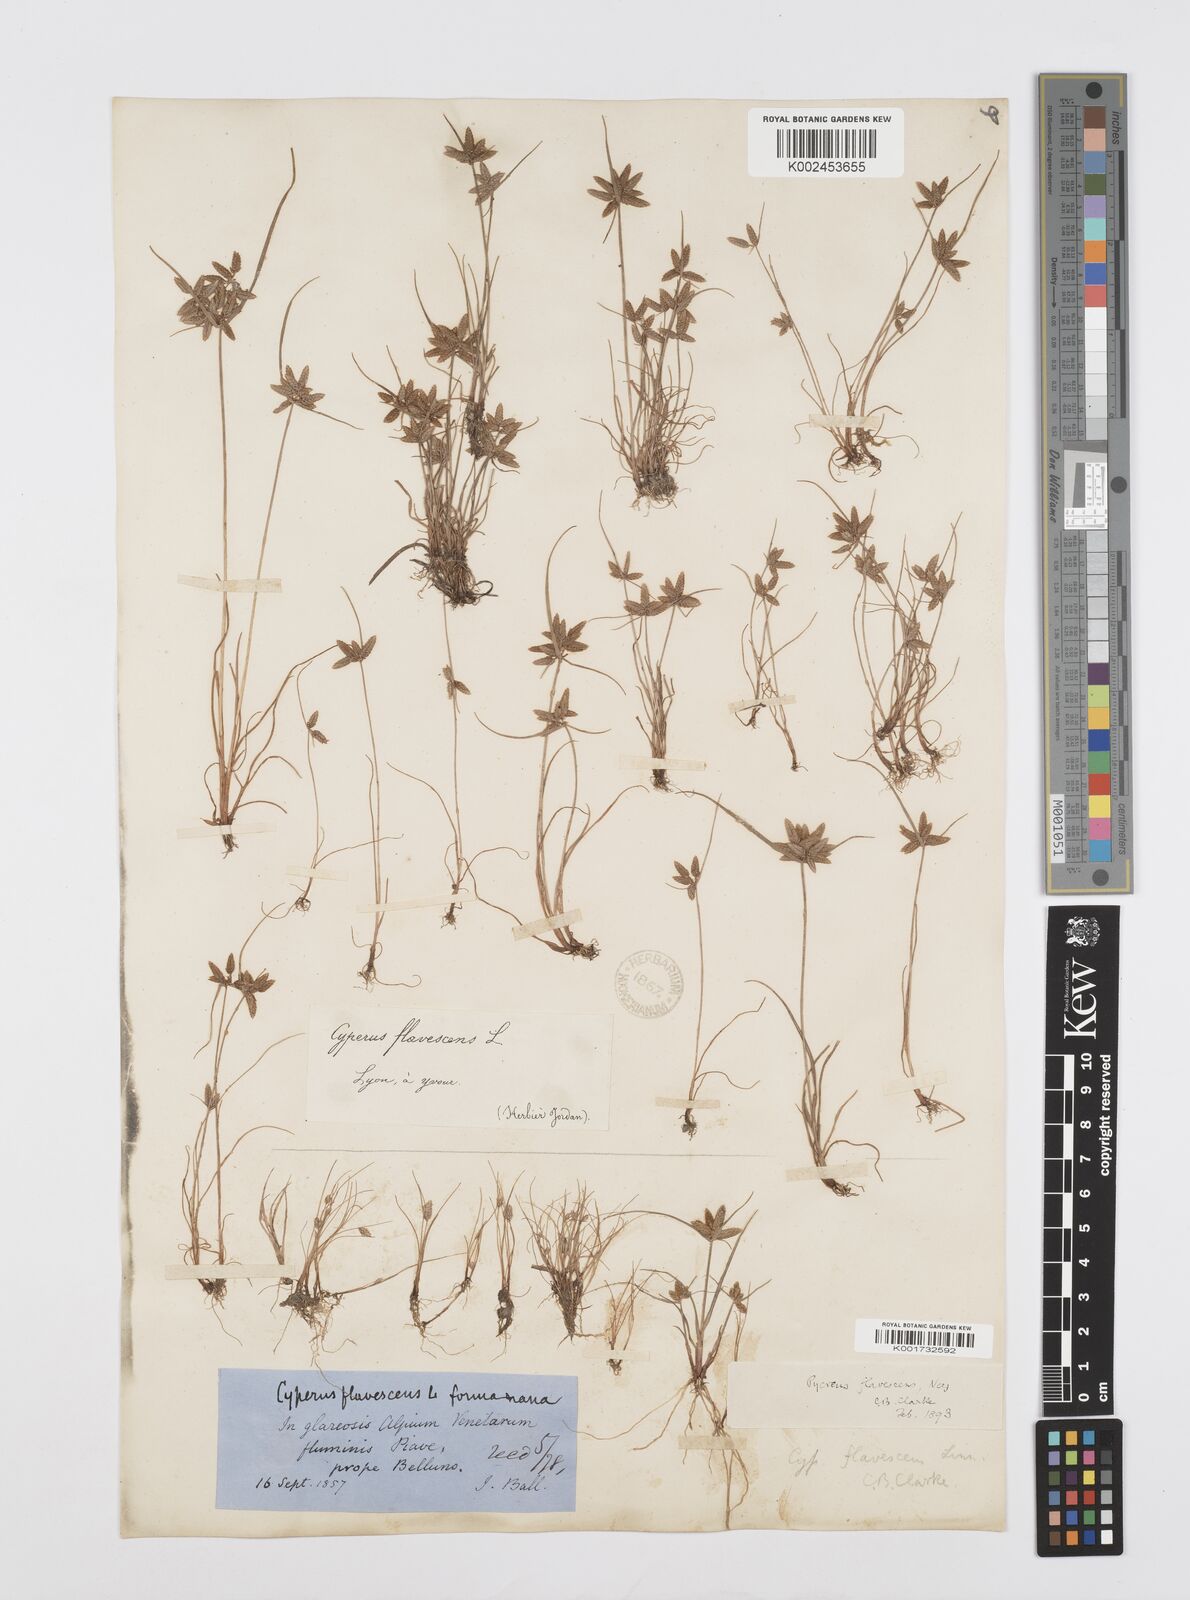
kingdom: Plantae
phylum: Tracheophyta
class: Liliopsida
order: Poales
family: Cyperaceae
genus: Cyperus
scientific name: Cyperus flavescens
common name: Yellow galingale
